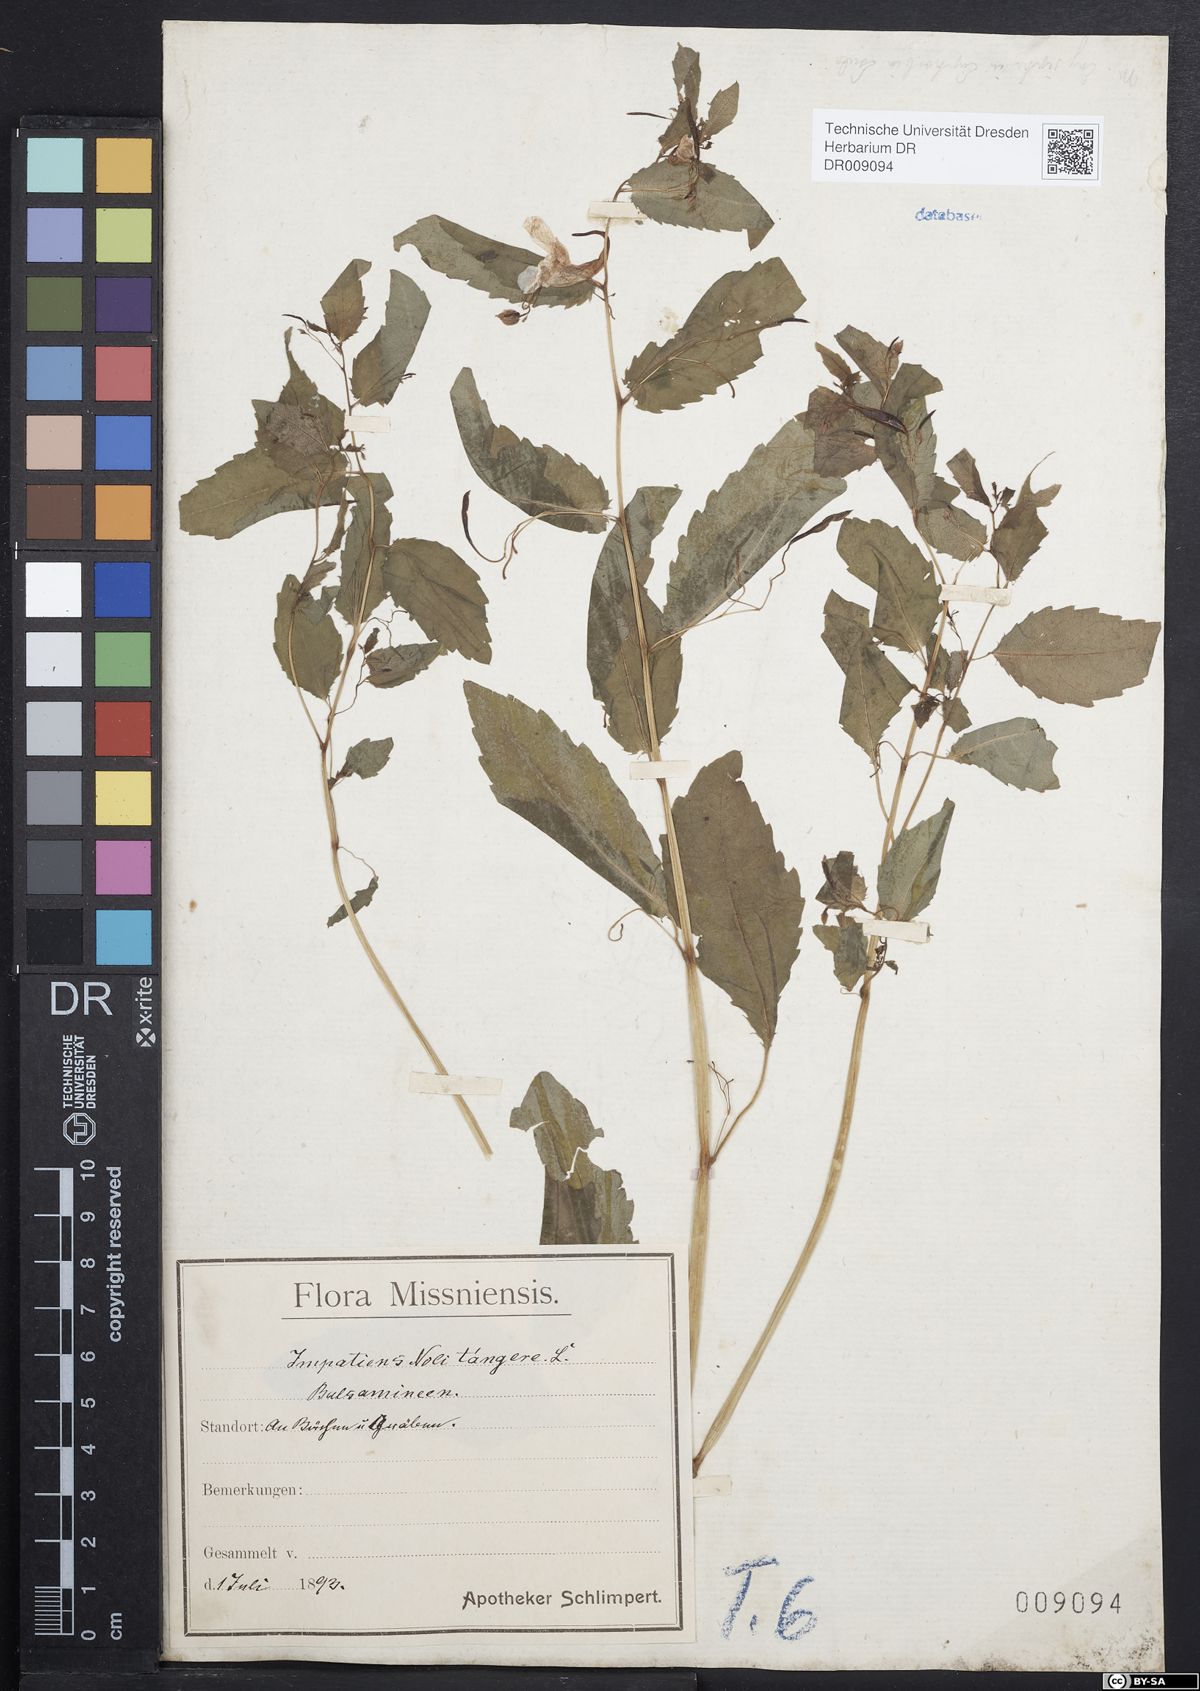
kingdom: Plantae
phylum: Tracheophyta
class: Magnoliopsida
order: Ericales
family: Balsaminaceae
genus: Impatiens
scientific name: Impatiens noli-tangere
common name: Touch-me-not balsam
